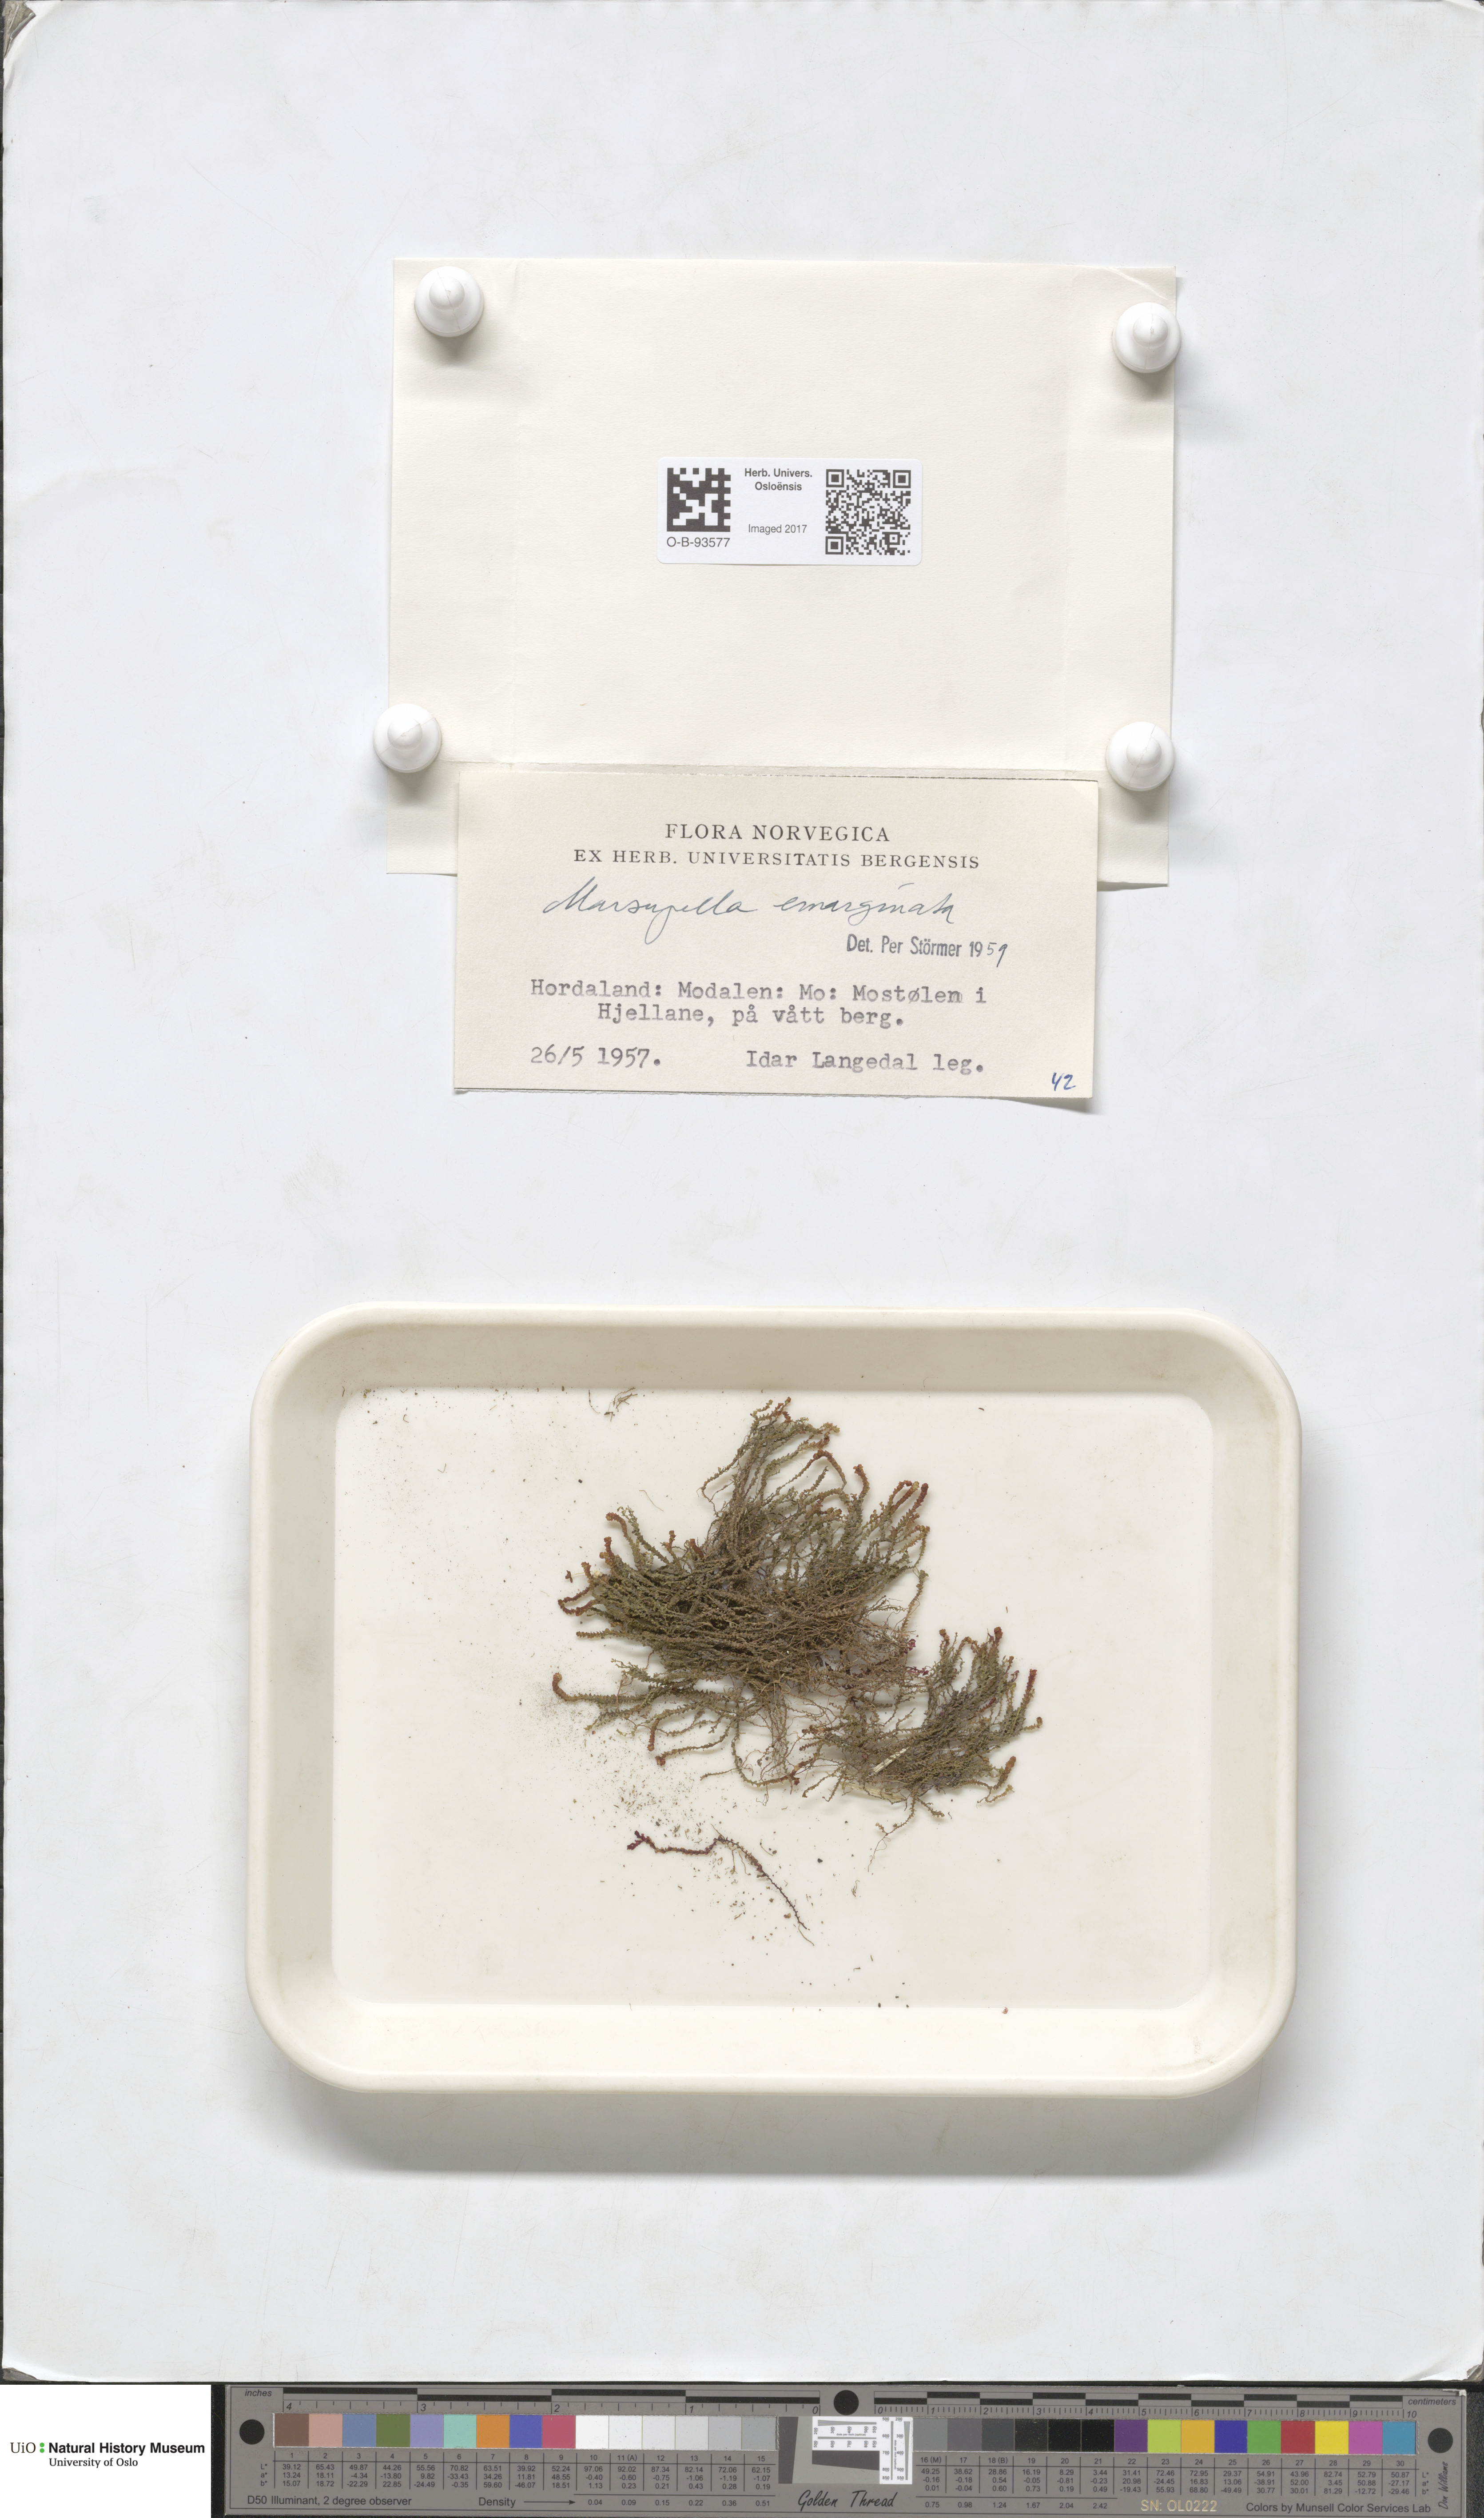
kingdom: Plantae
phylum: Marchantiophyta
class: Jungermanniopsida
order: Jungermanniales
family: Gymnomitriaceae
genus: Marsupella
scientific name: Marsupella emarginata
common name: Notched rustwort
